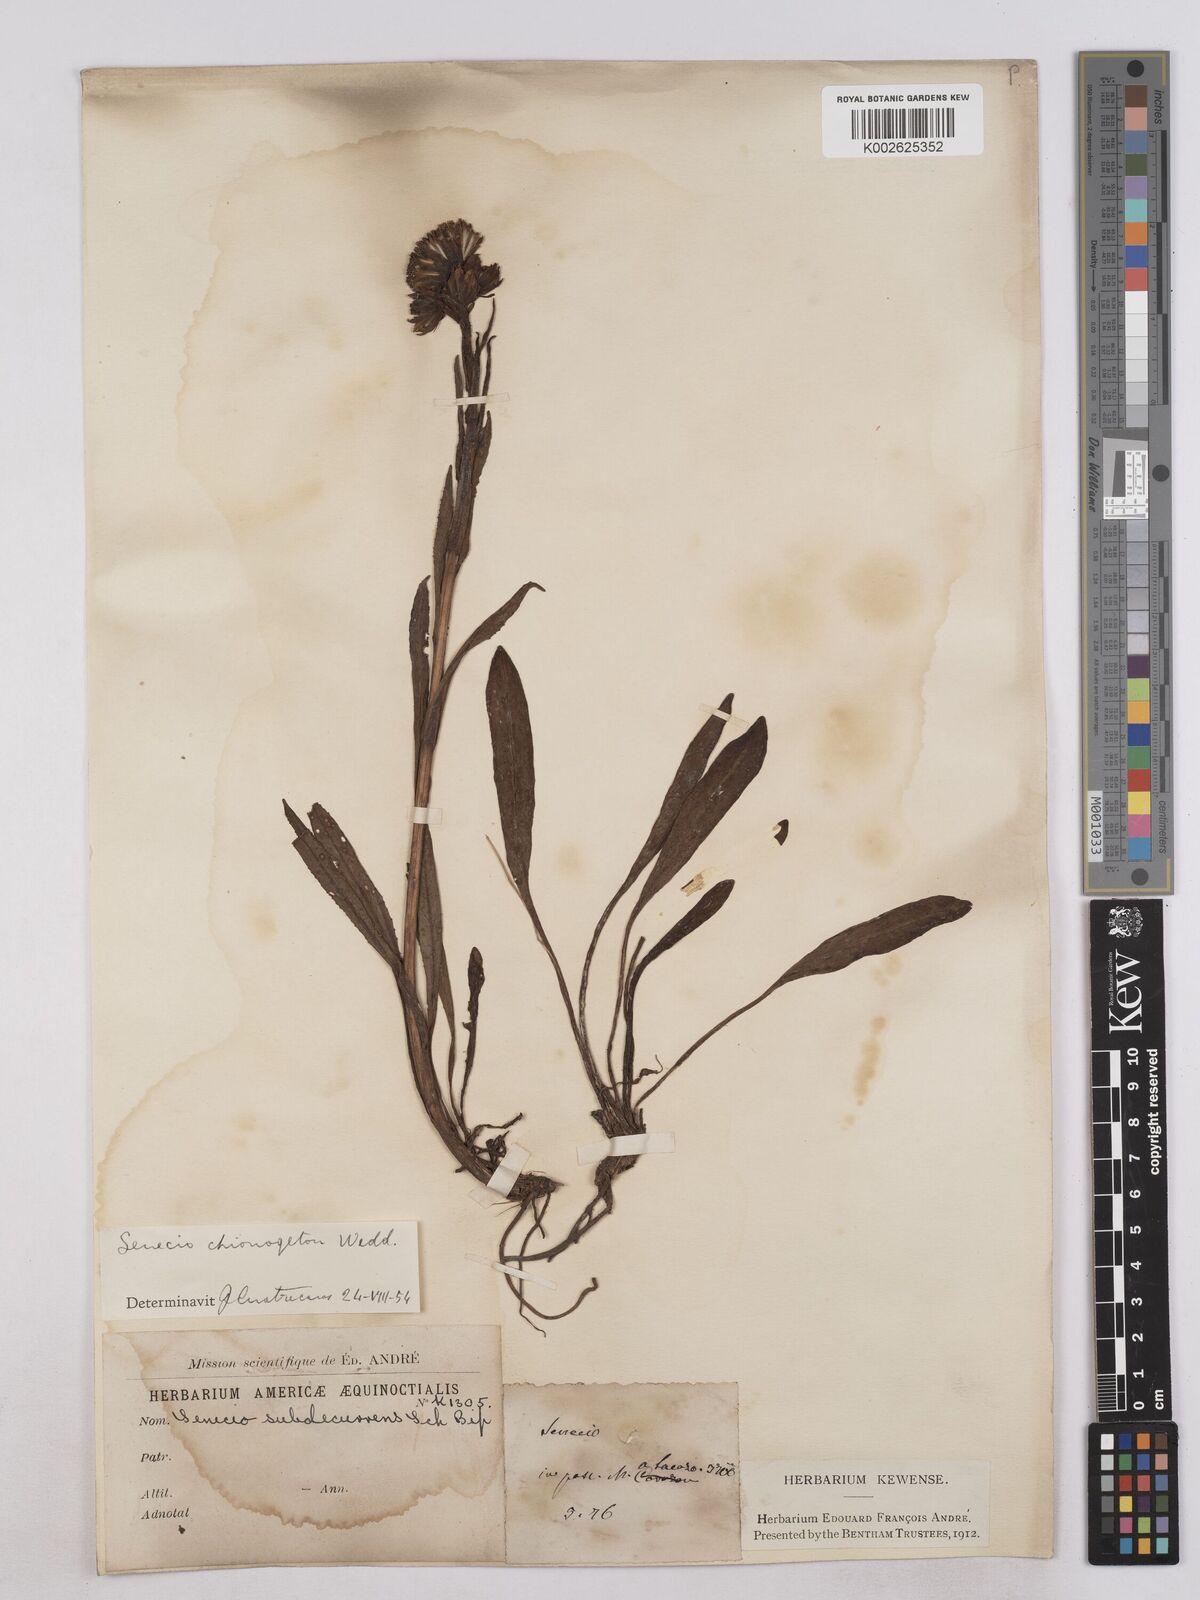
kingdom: Plantae
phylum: Tracheophyta
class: Magnoliopsida
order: Asterales
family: Asteraceae
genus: Senecio
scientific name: Senecio chionogeton
